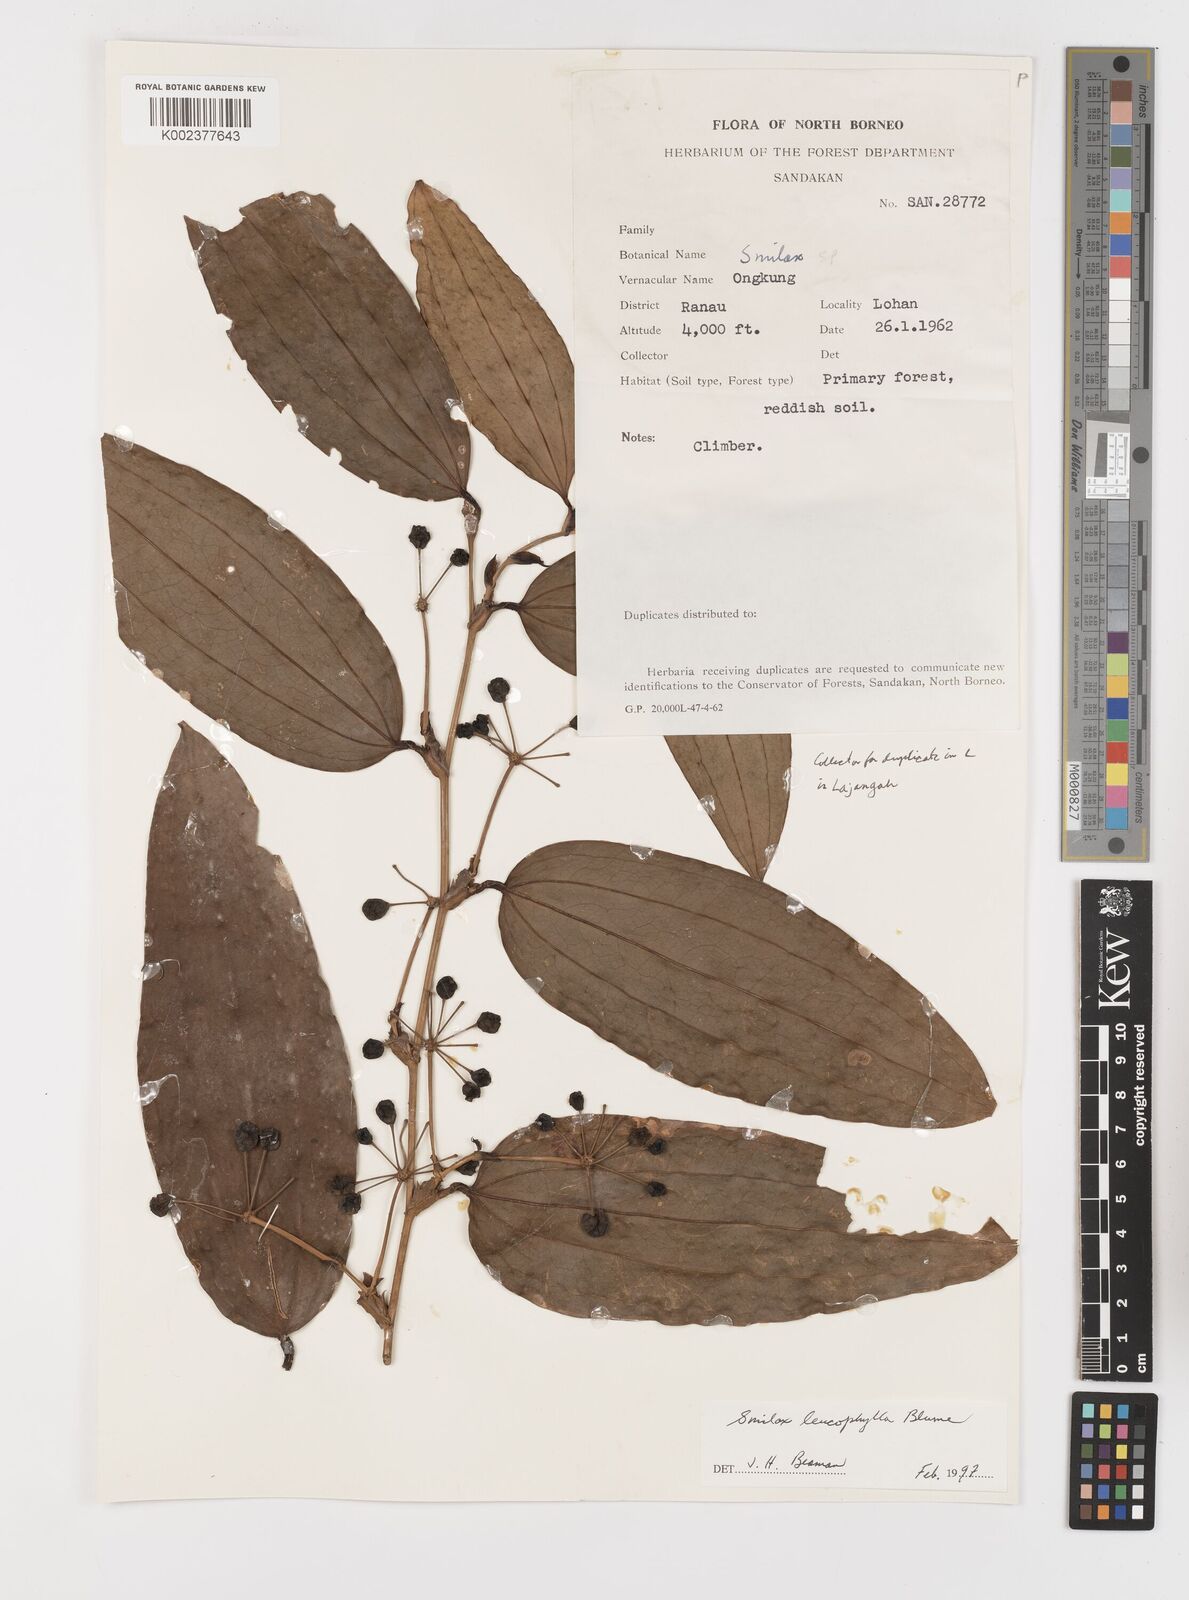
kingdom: Plantae
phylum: Tracheophyta
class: Liliopsida
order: Liliales
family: Smilacaceae
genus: Smilax
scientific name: Smilax leucophylla
